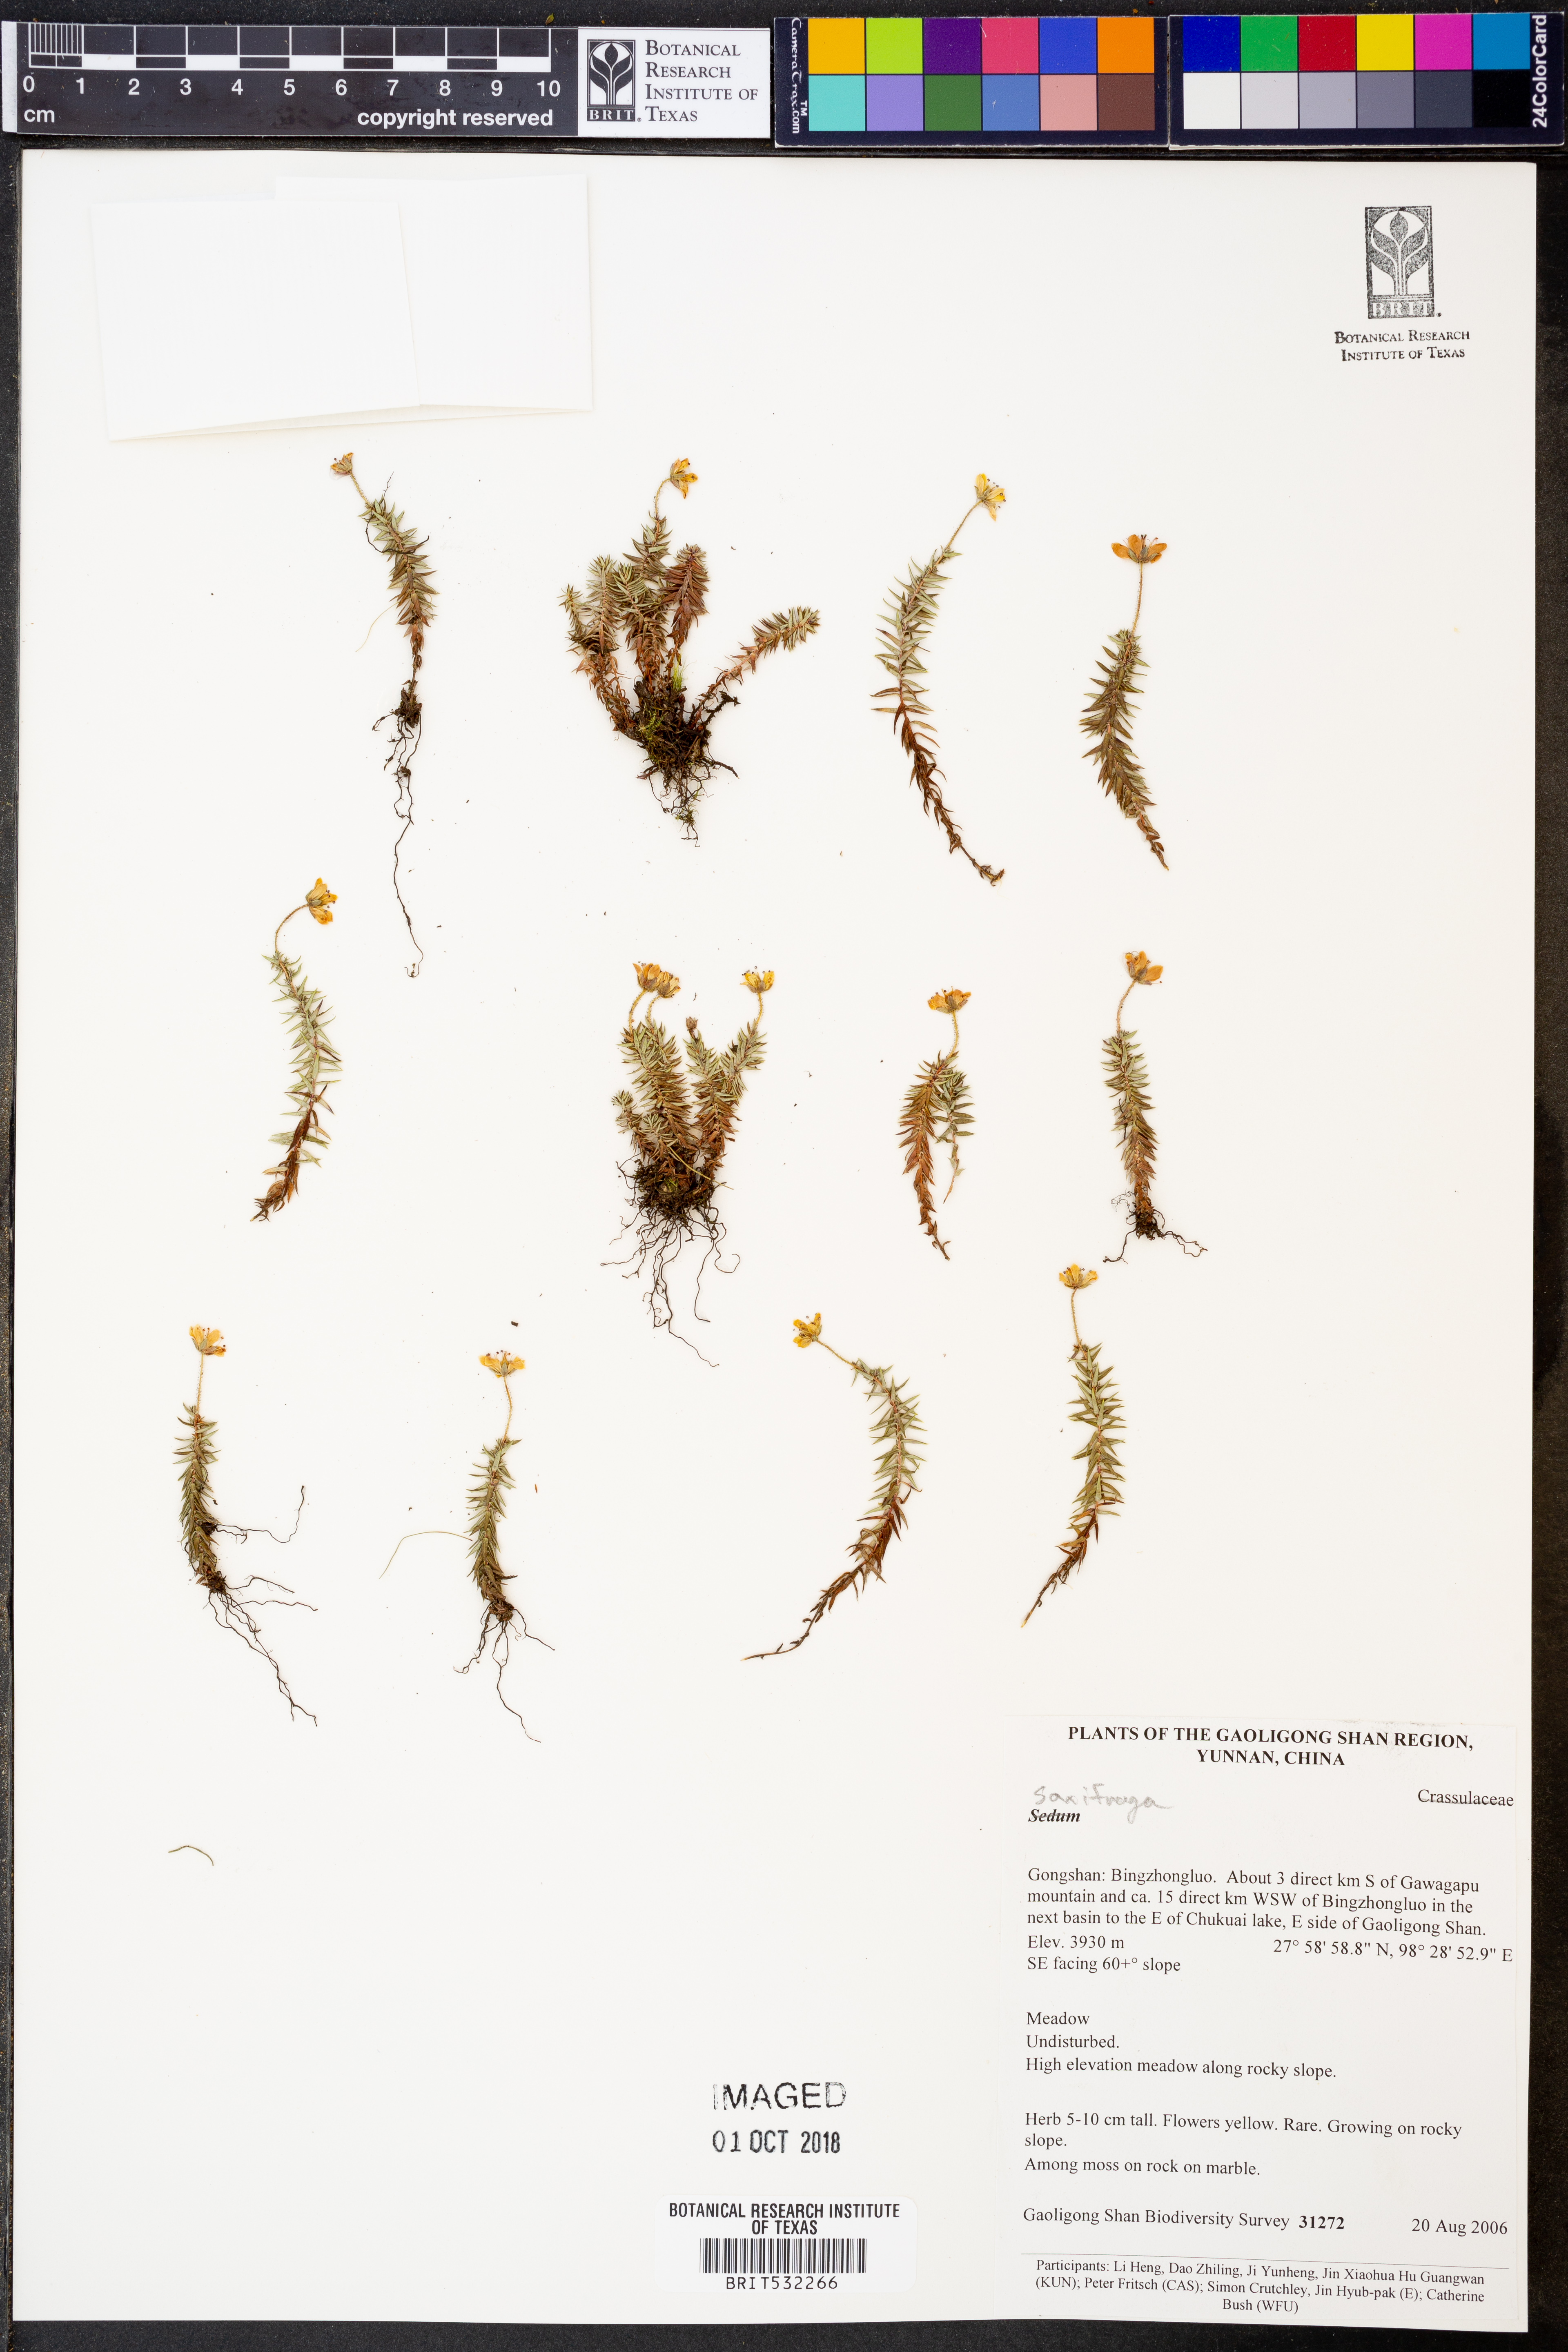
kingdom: Plantae
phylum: Tracheophyta
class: Magnoliopsida
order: Saxifragales
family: Saxifragaceae
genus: Saxifraga
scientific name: Saxifraga
